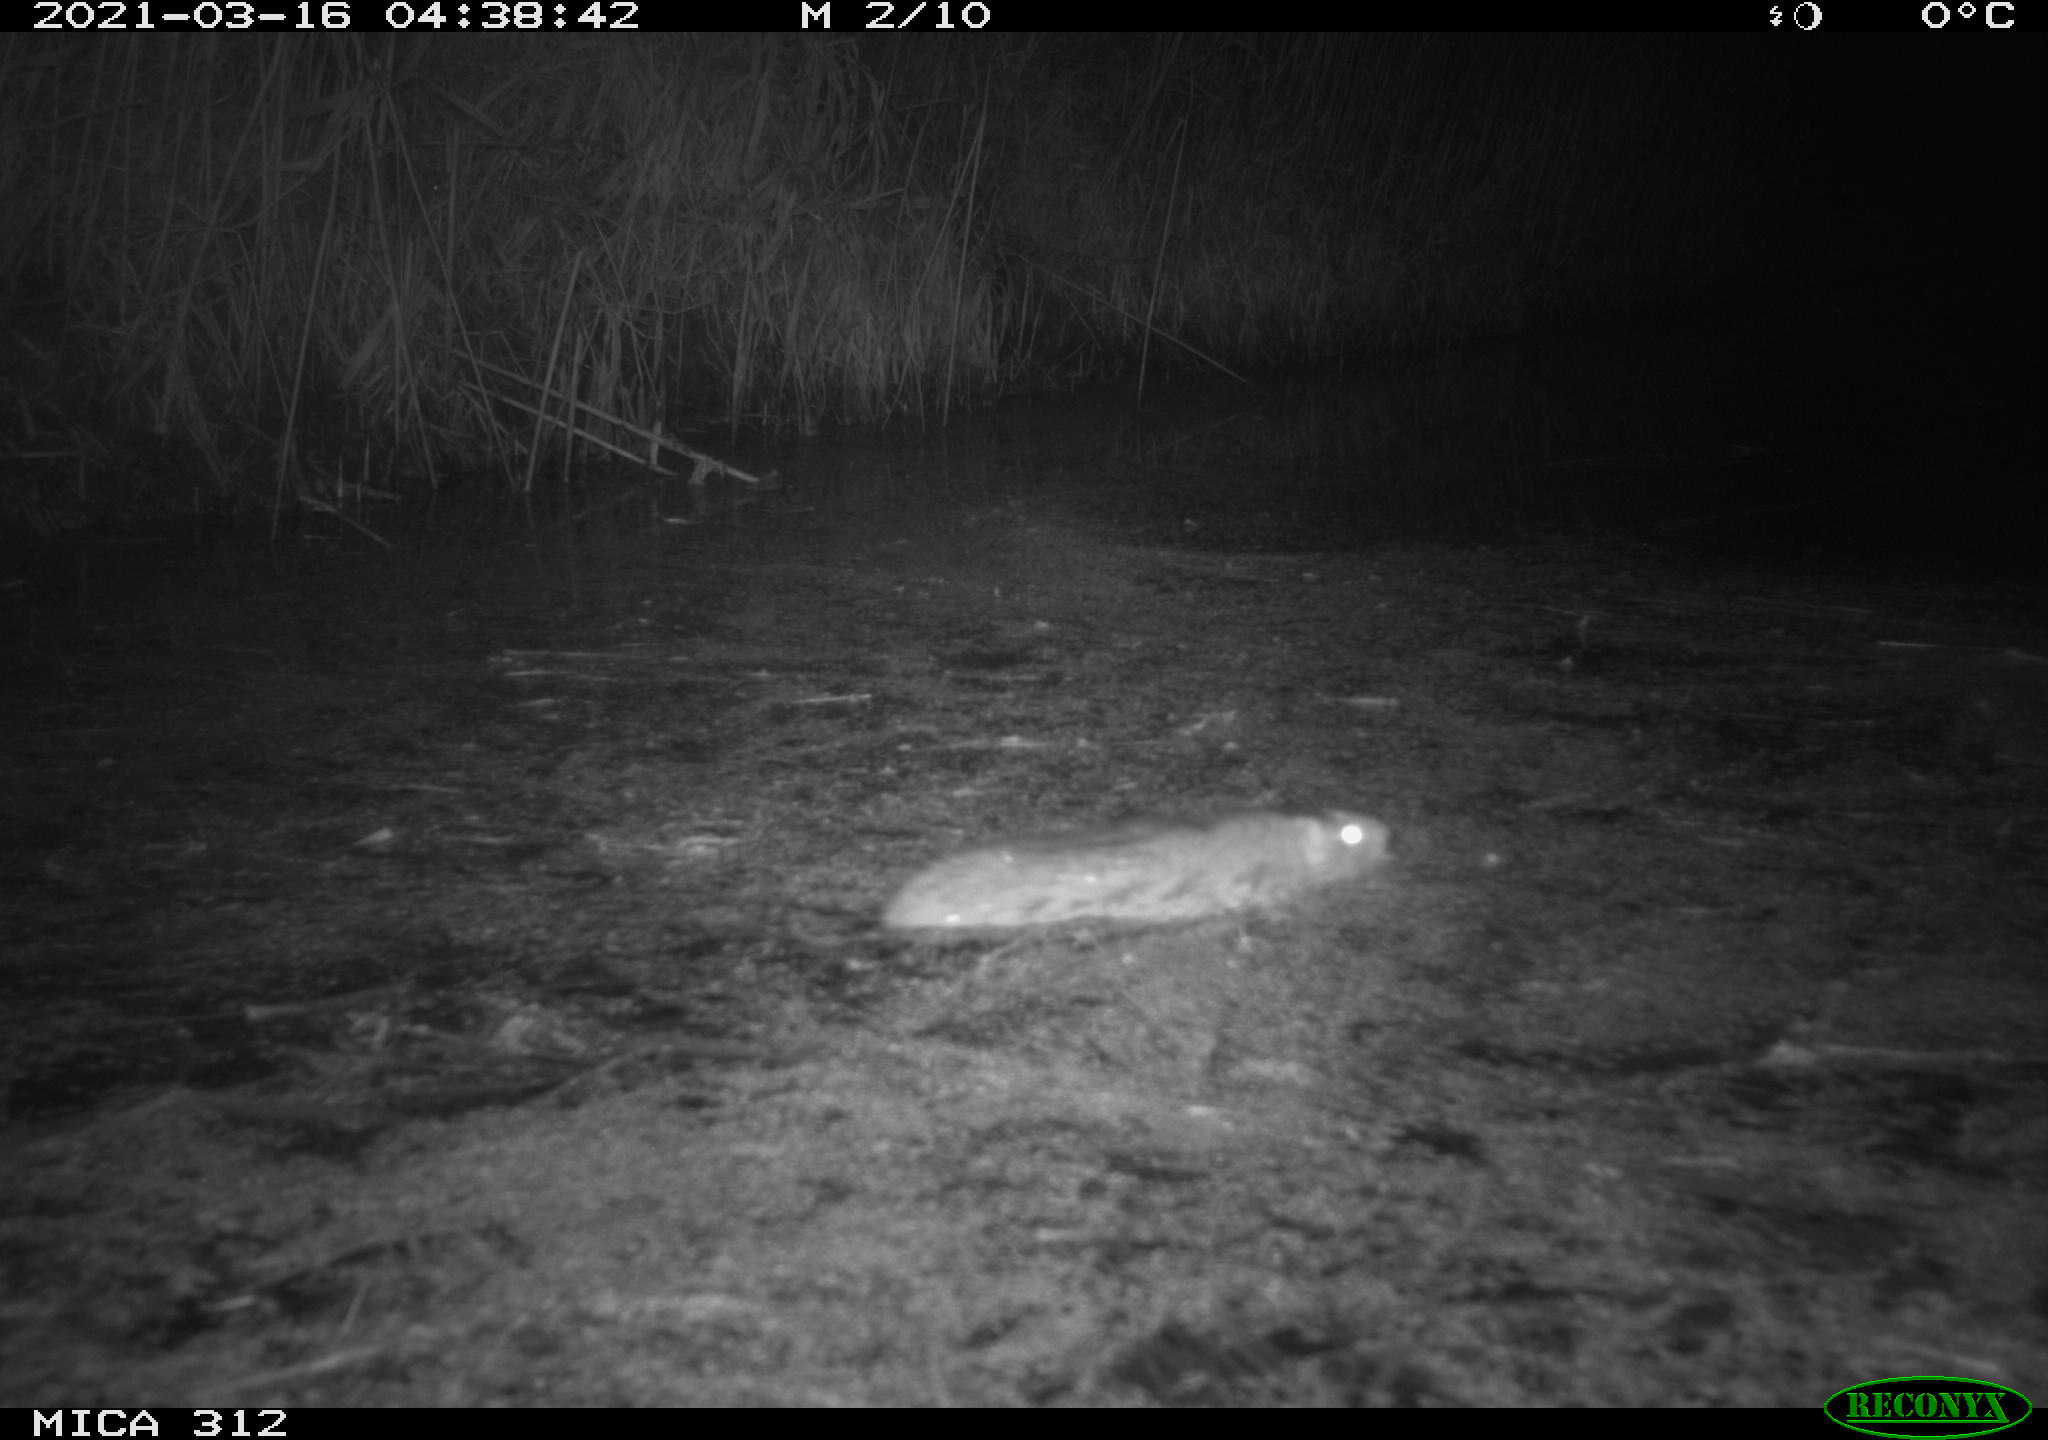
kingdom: Animalia
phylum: Chordata
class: Mammalia
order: Rodentia
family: Muridae
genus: Rattus
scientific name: Rattus norvegicus
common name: Brown rat
